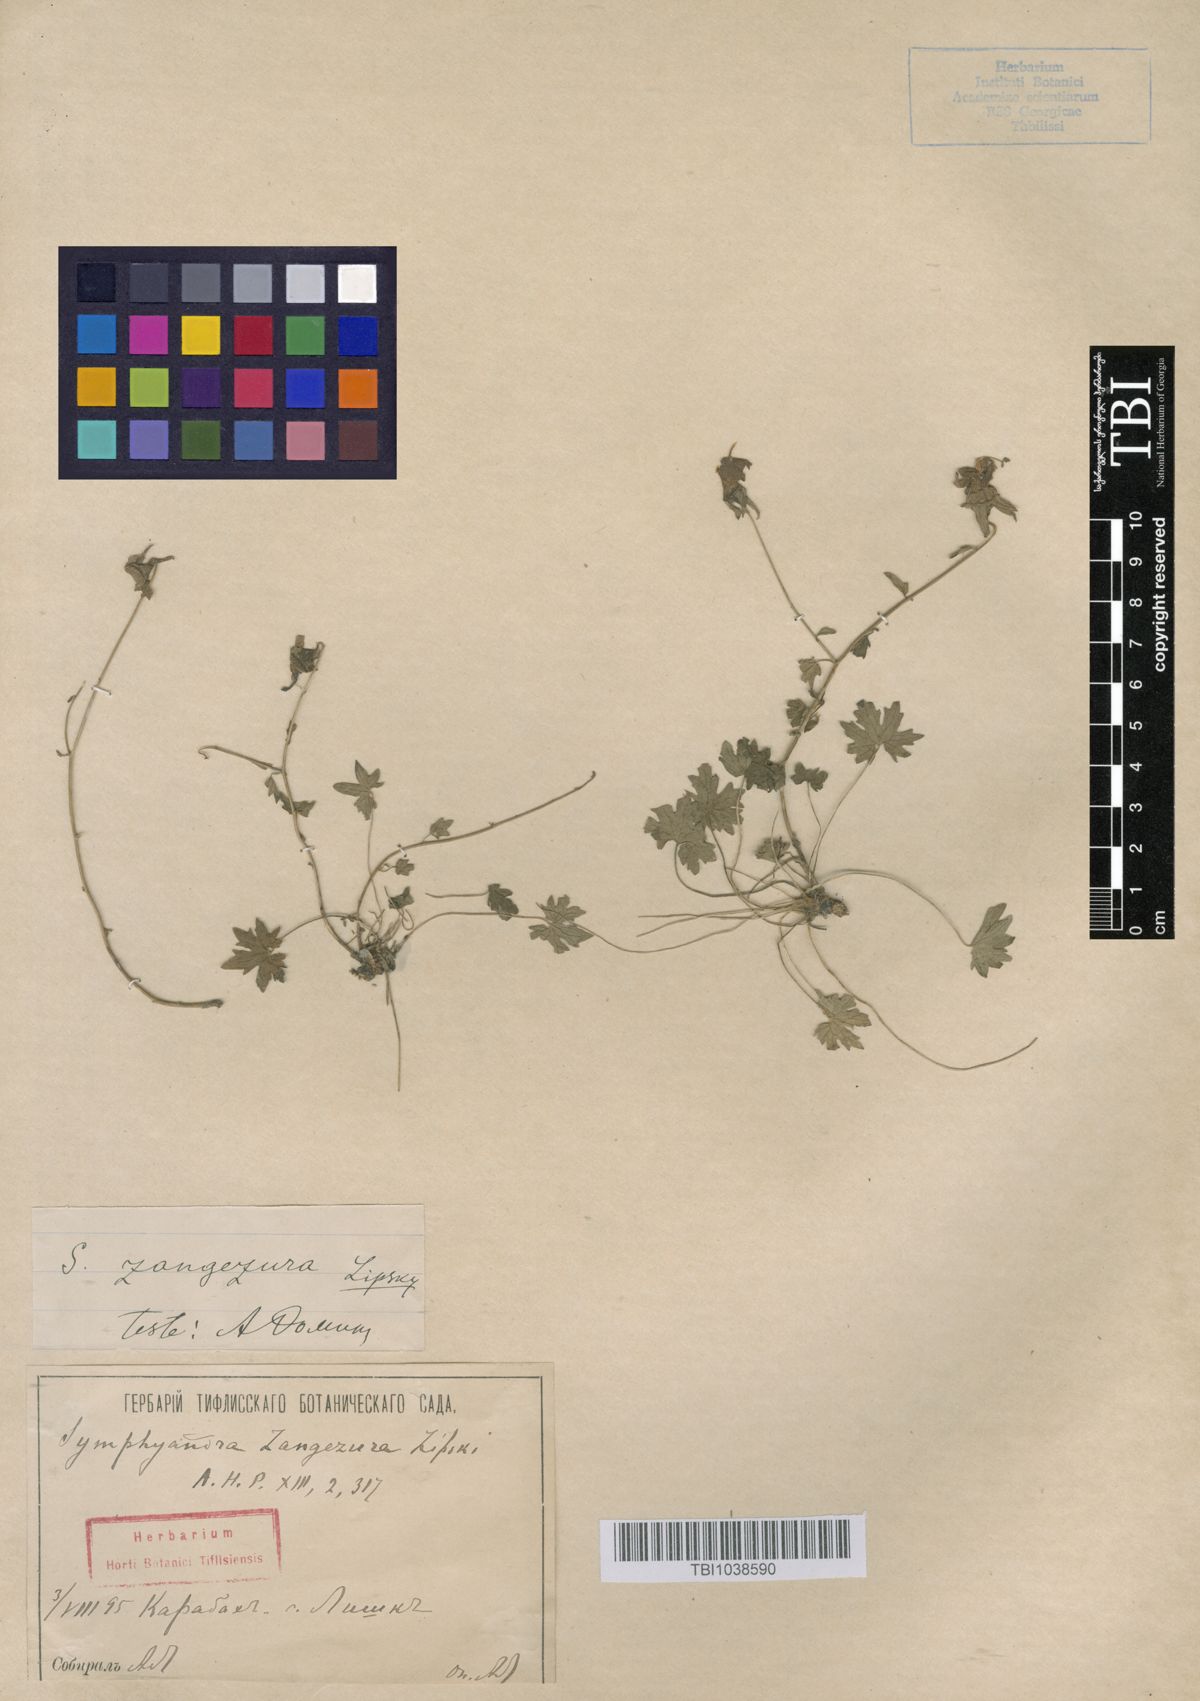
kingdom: Plantae
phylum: Tracheophyta
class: Magnoliopsida
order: Asterales
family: Campanulaceae
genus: Campanula
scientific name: Campanula zangezura
